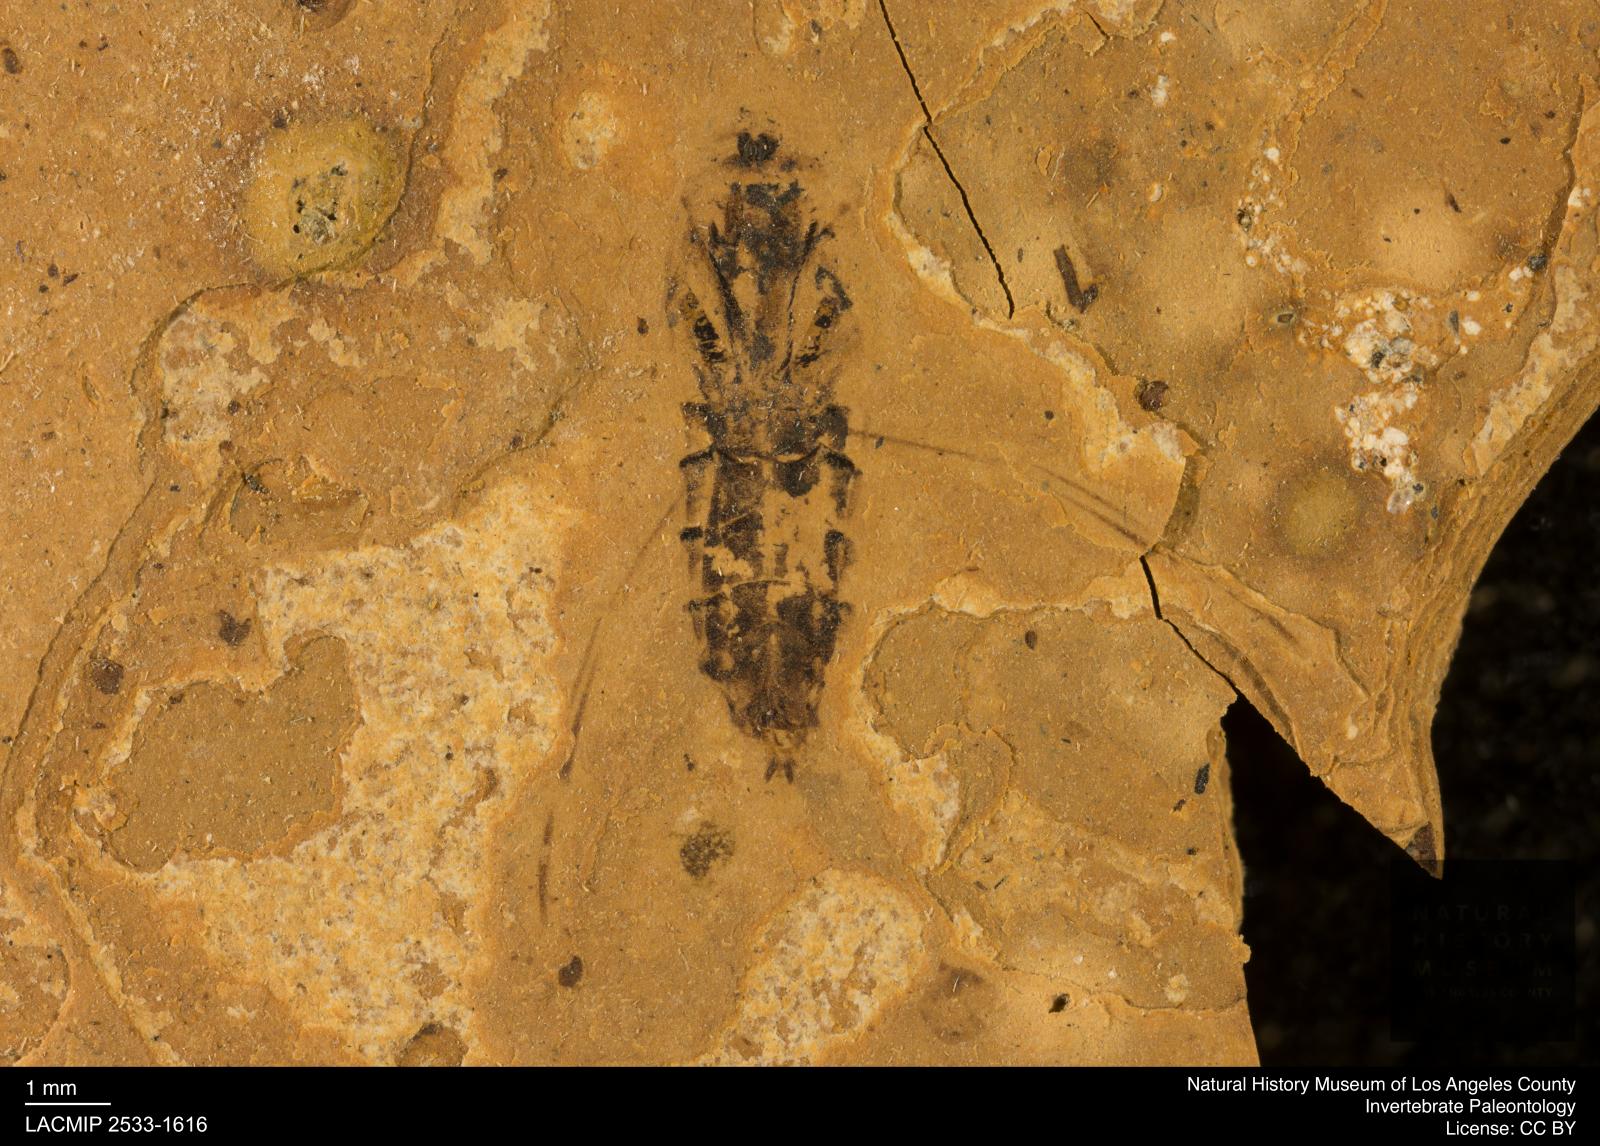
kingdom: Animalia
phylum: Arthropoda
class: Insecta
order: Hemiptera
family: Notonectidae
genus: Notonecta
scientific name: Notonecta
